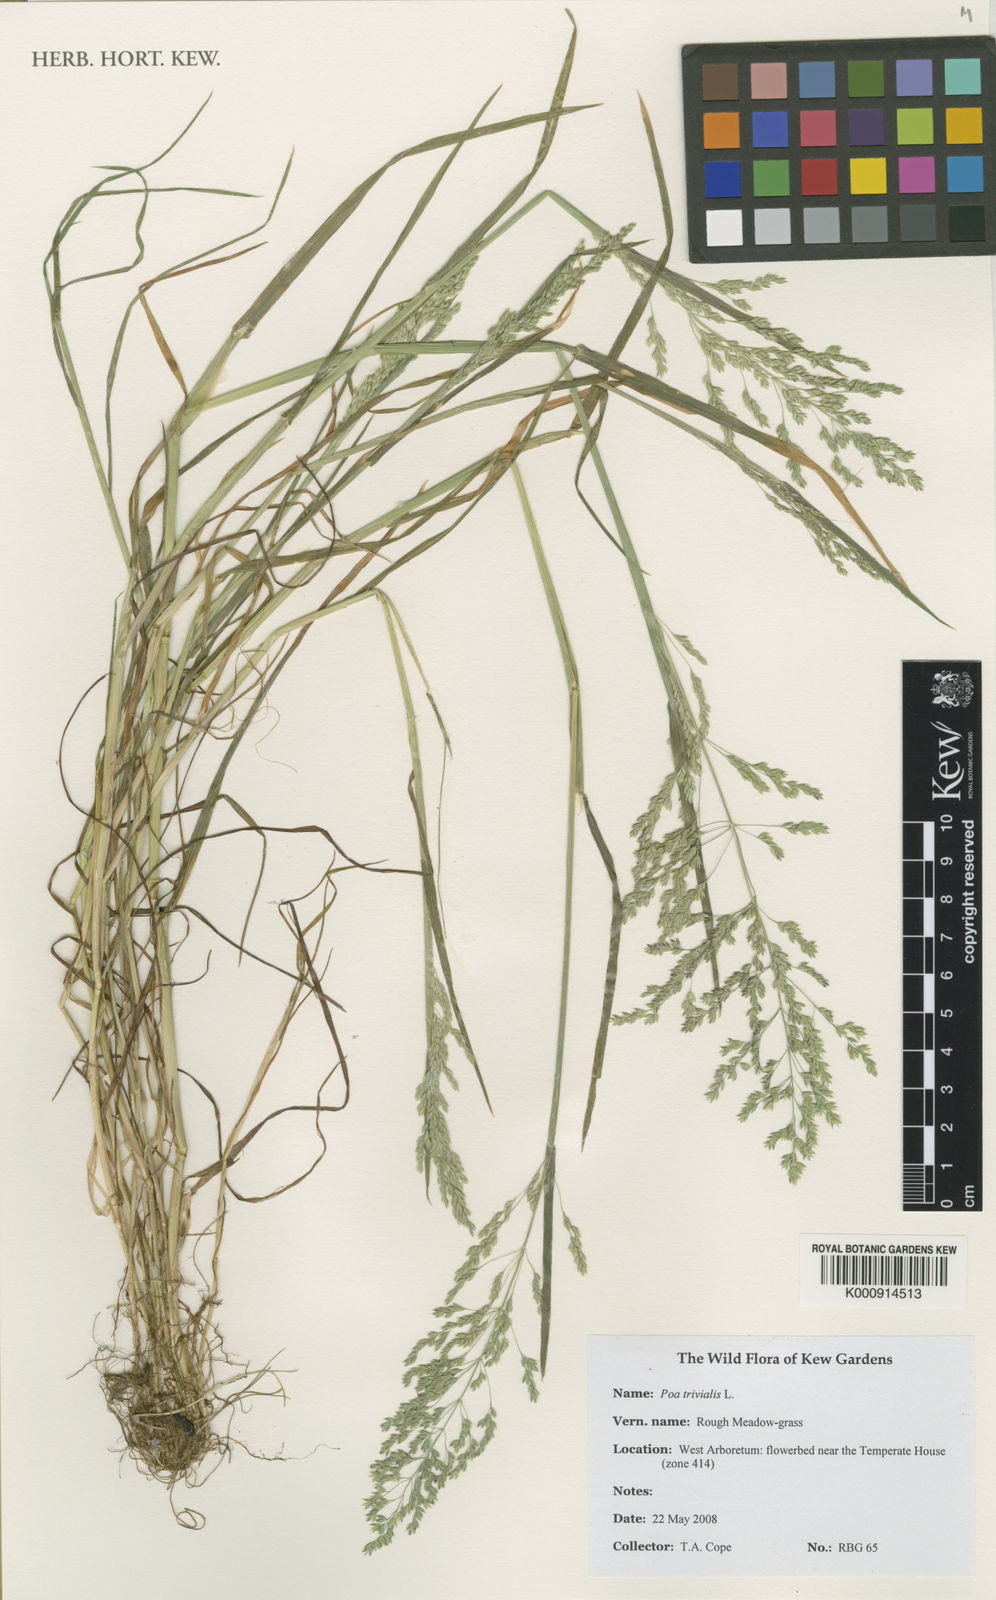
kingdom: Plantae
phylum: Tracheophyta
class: Liliopsida
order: Poales
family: Poaceae
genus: Poa
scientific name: Poa trivialis
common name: Rough bluegrass
